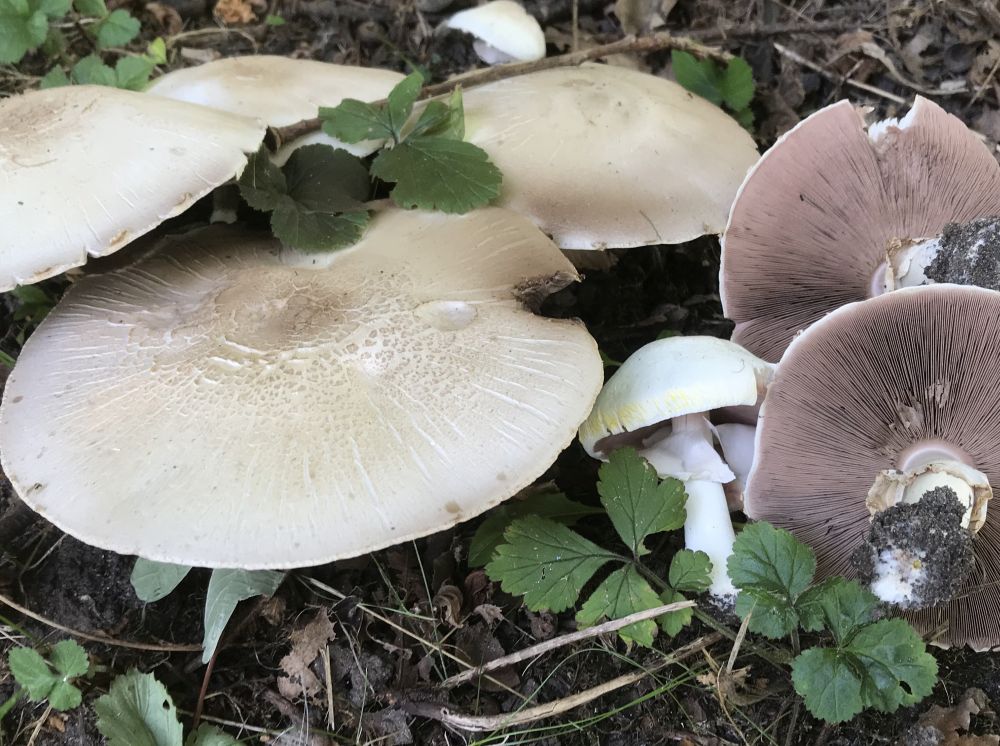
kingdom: Fungi
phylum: Basidiomycota
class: Agaricomycetes
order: Agaricales
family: Agaricaceae
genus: Agaricus
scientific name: Agaricus xanthodermus
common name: karbol-champignon
